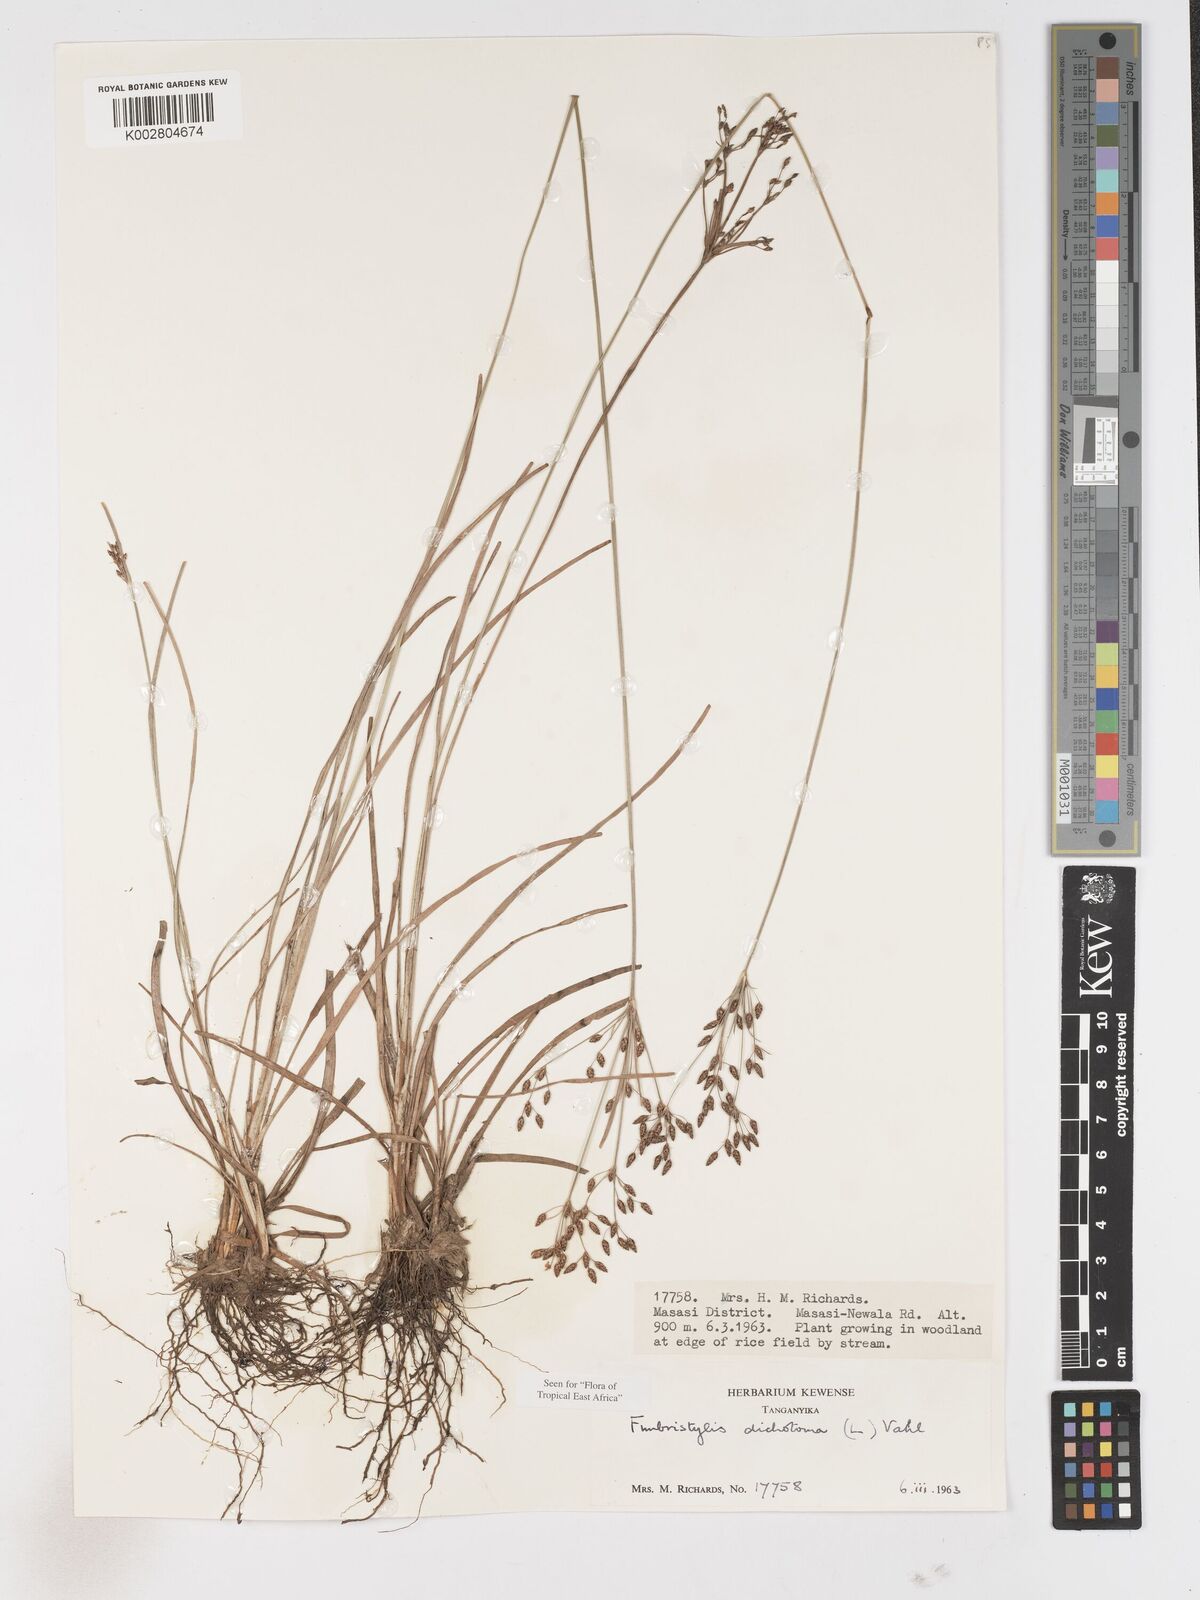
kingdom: Plantae
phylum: Tracheophyta
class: Liliopsida
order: Poales
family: Cyperaceae
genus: Fimbristylis
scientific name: Fimbristylis dichotoma
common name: Forked fimbry
